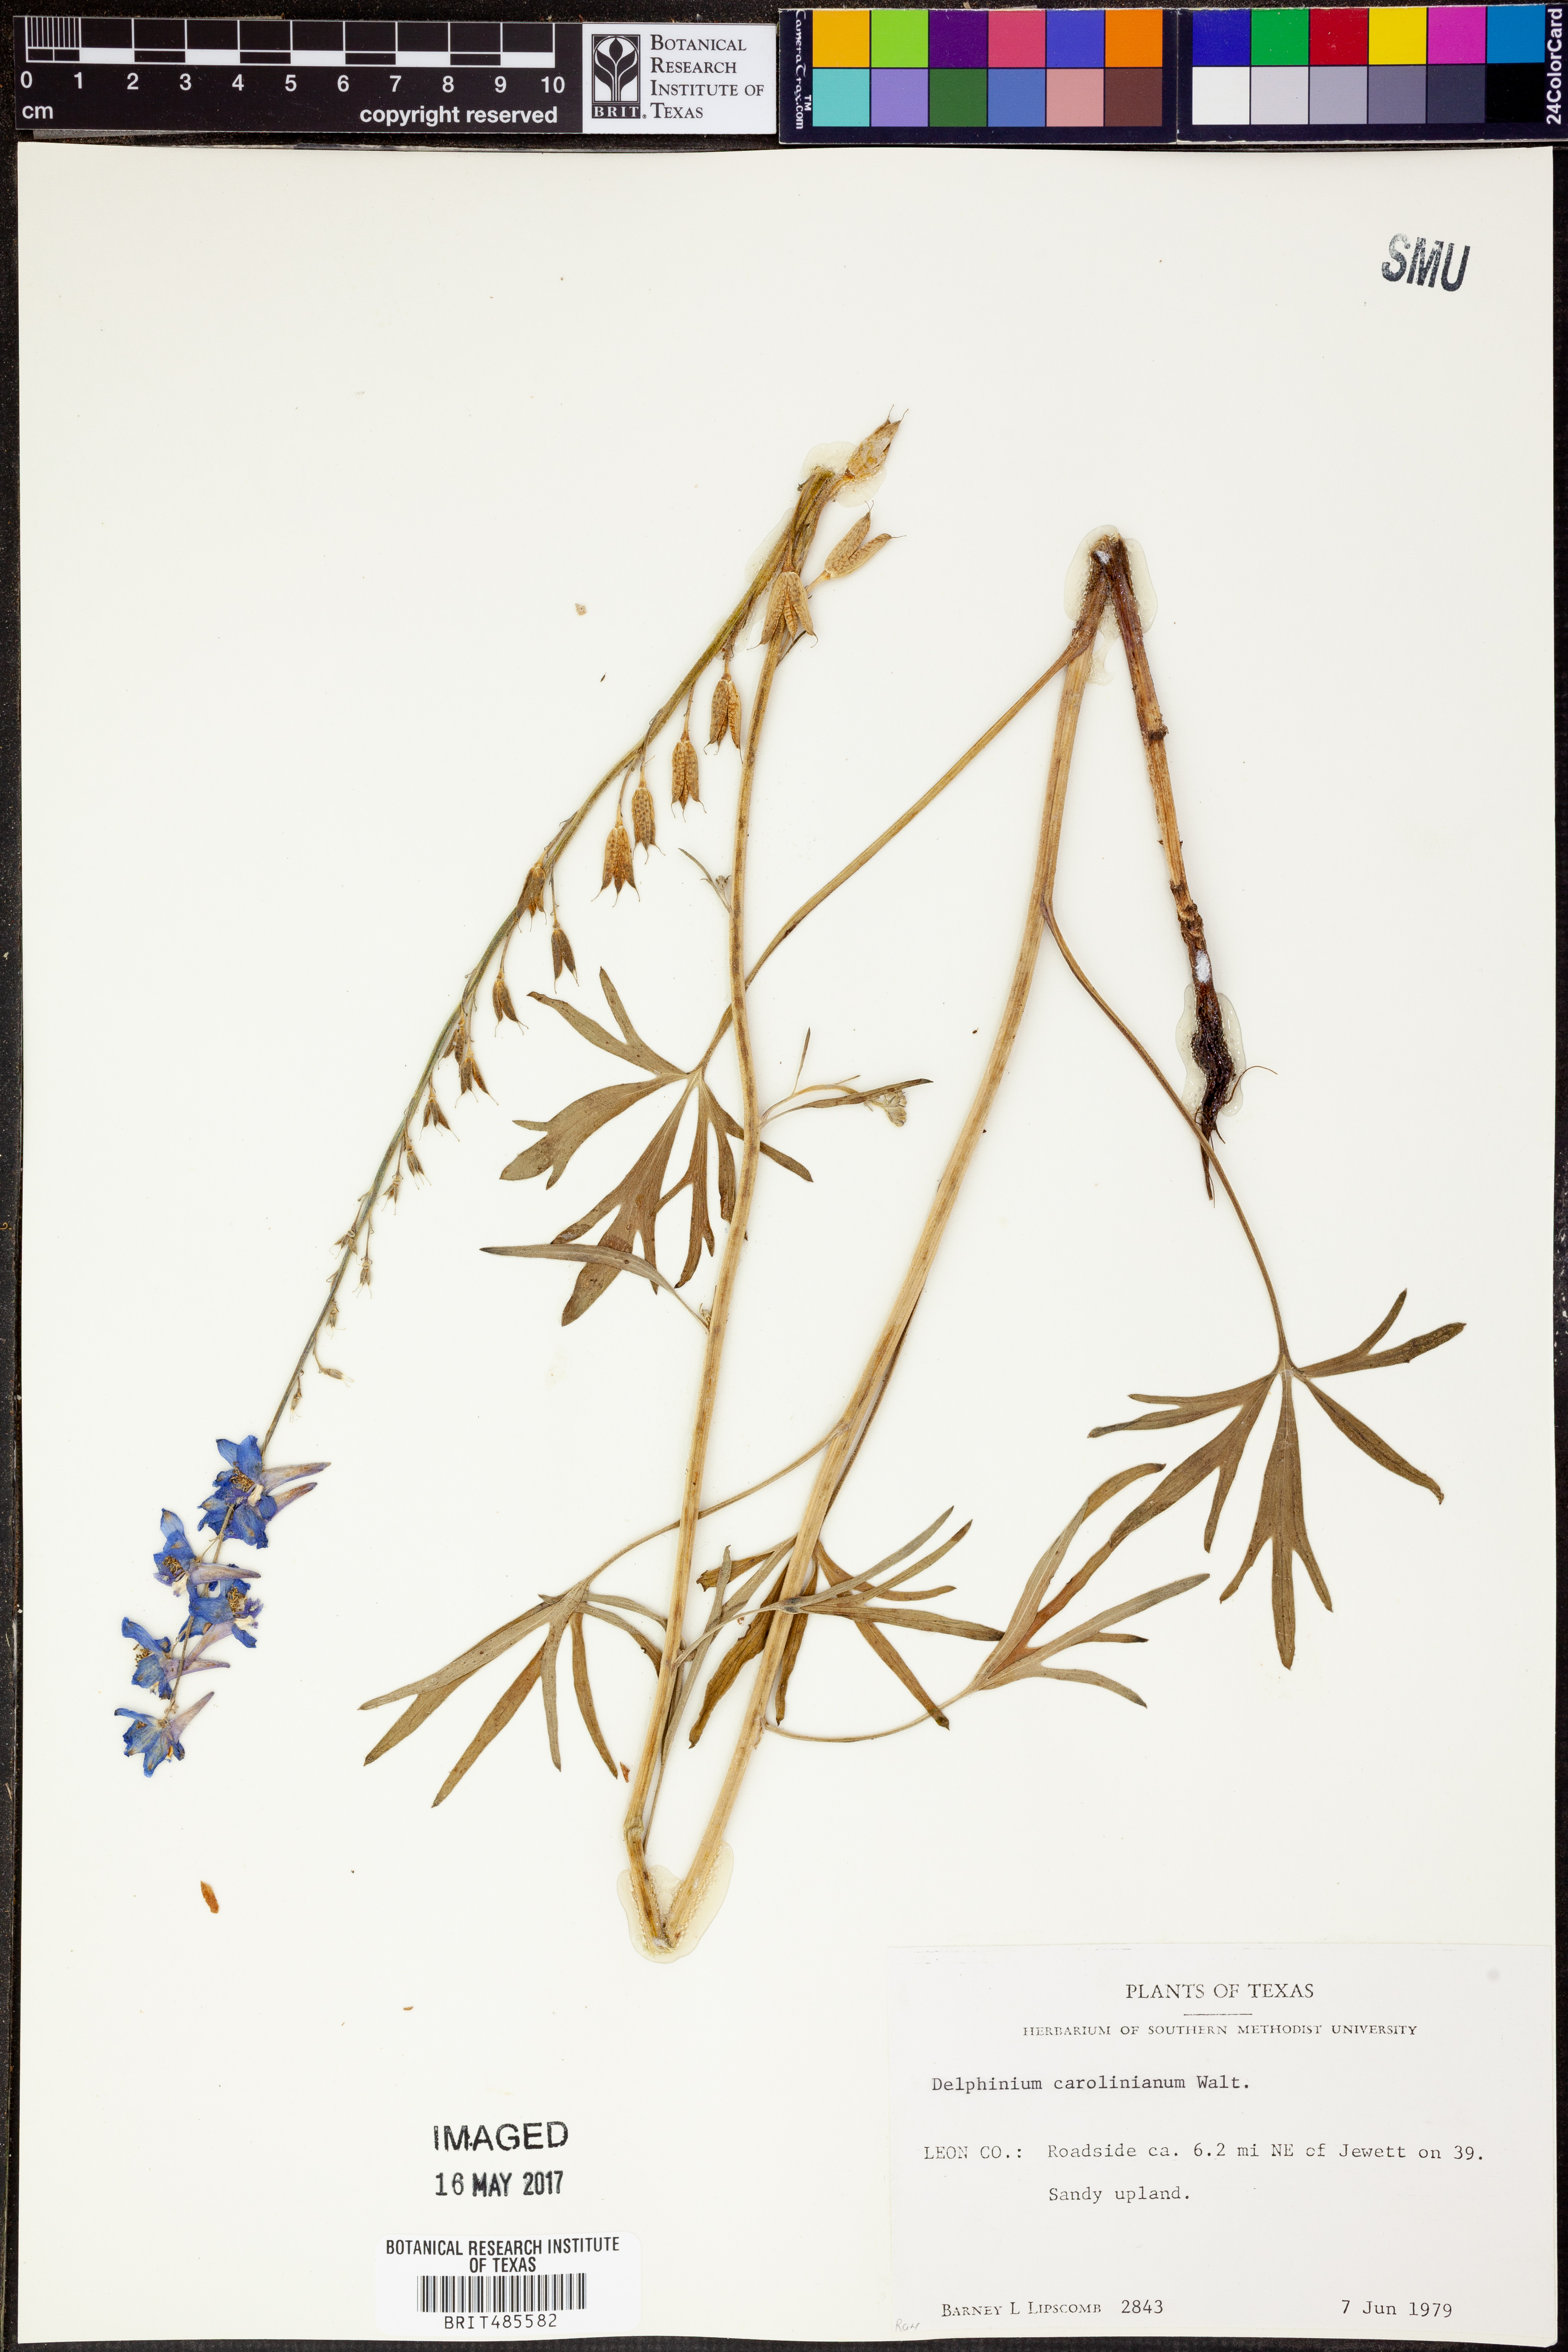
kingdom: Plantae
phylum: Tracheophyta
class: Magnoliopsida
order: Ranunculales
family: Ranunculaceae
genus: Delphinium
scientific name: Delphinium carolinianum
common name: Carolina larkspur
